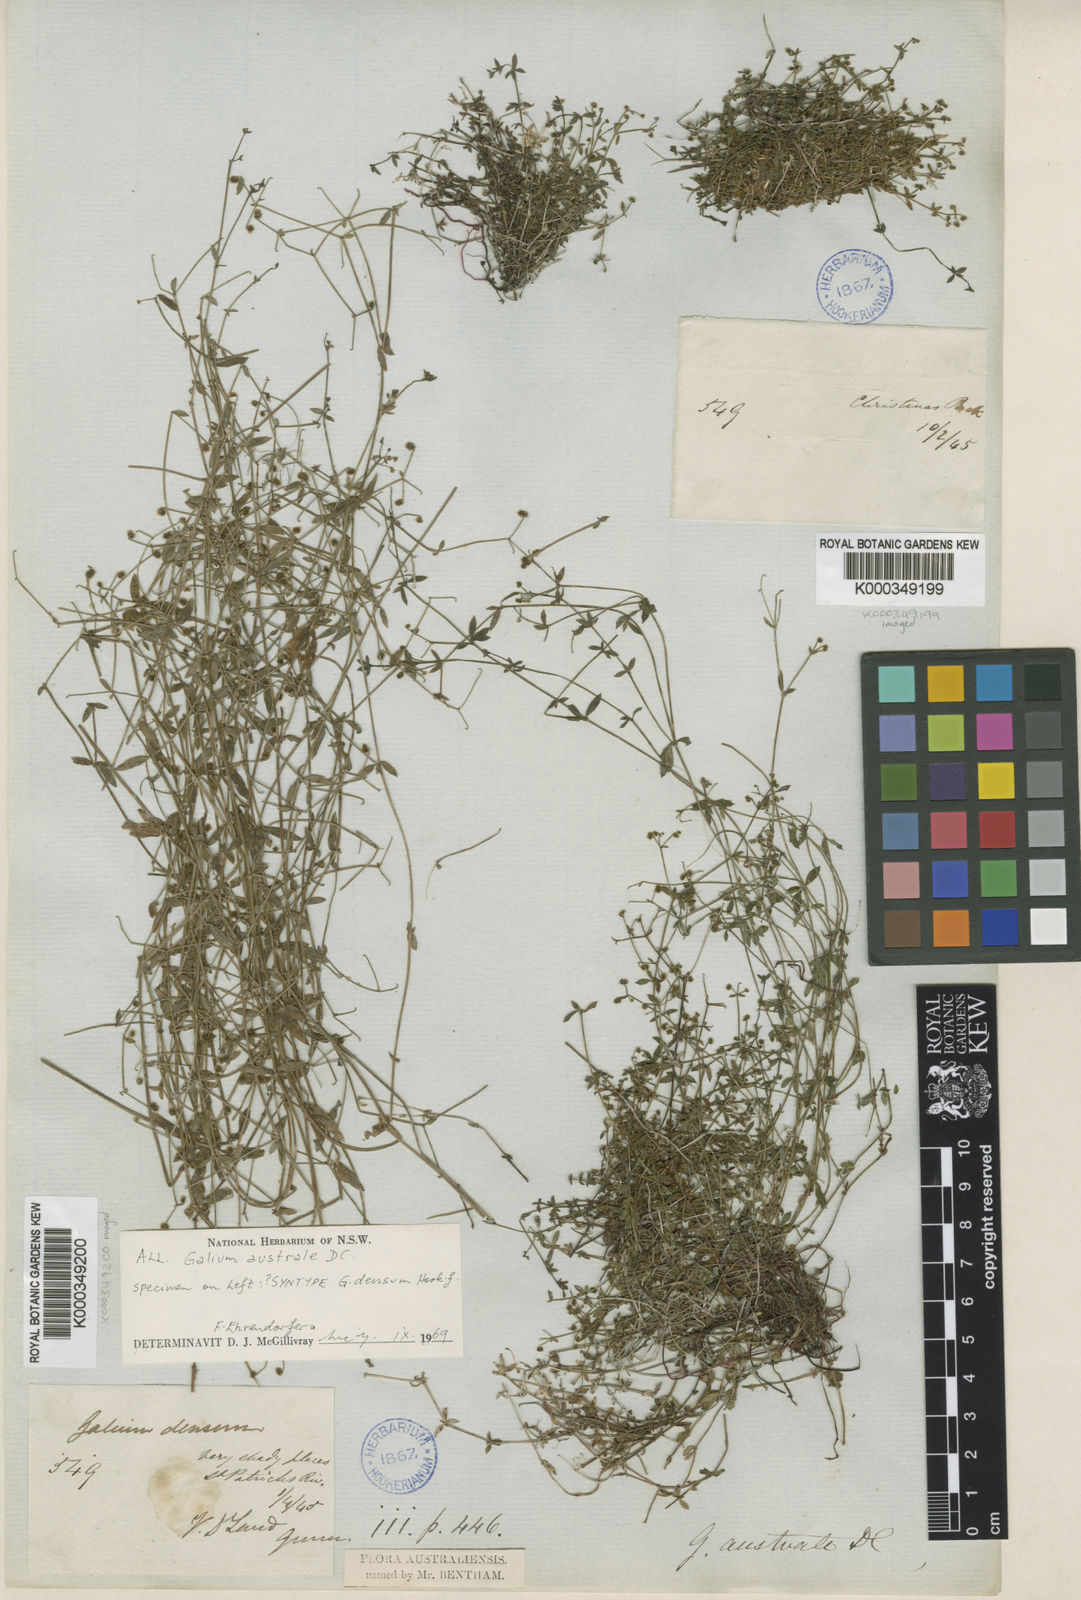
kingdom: Plantae
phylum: Tracheophyta
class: Magnoliopsida
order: Gentianales
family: Rubiaceae
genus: Galium
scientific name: Galium australe
